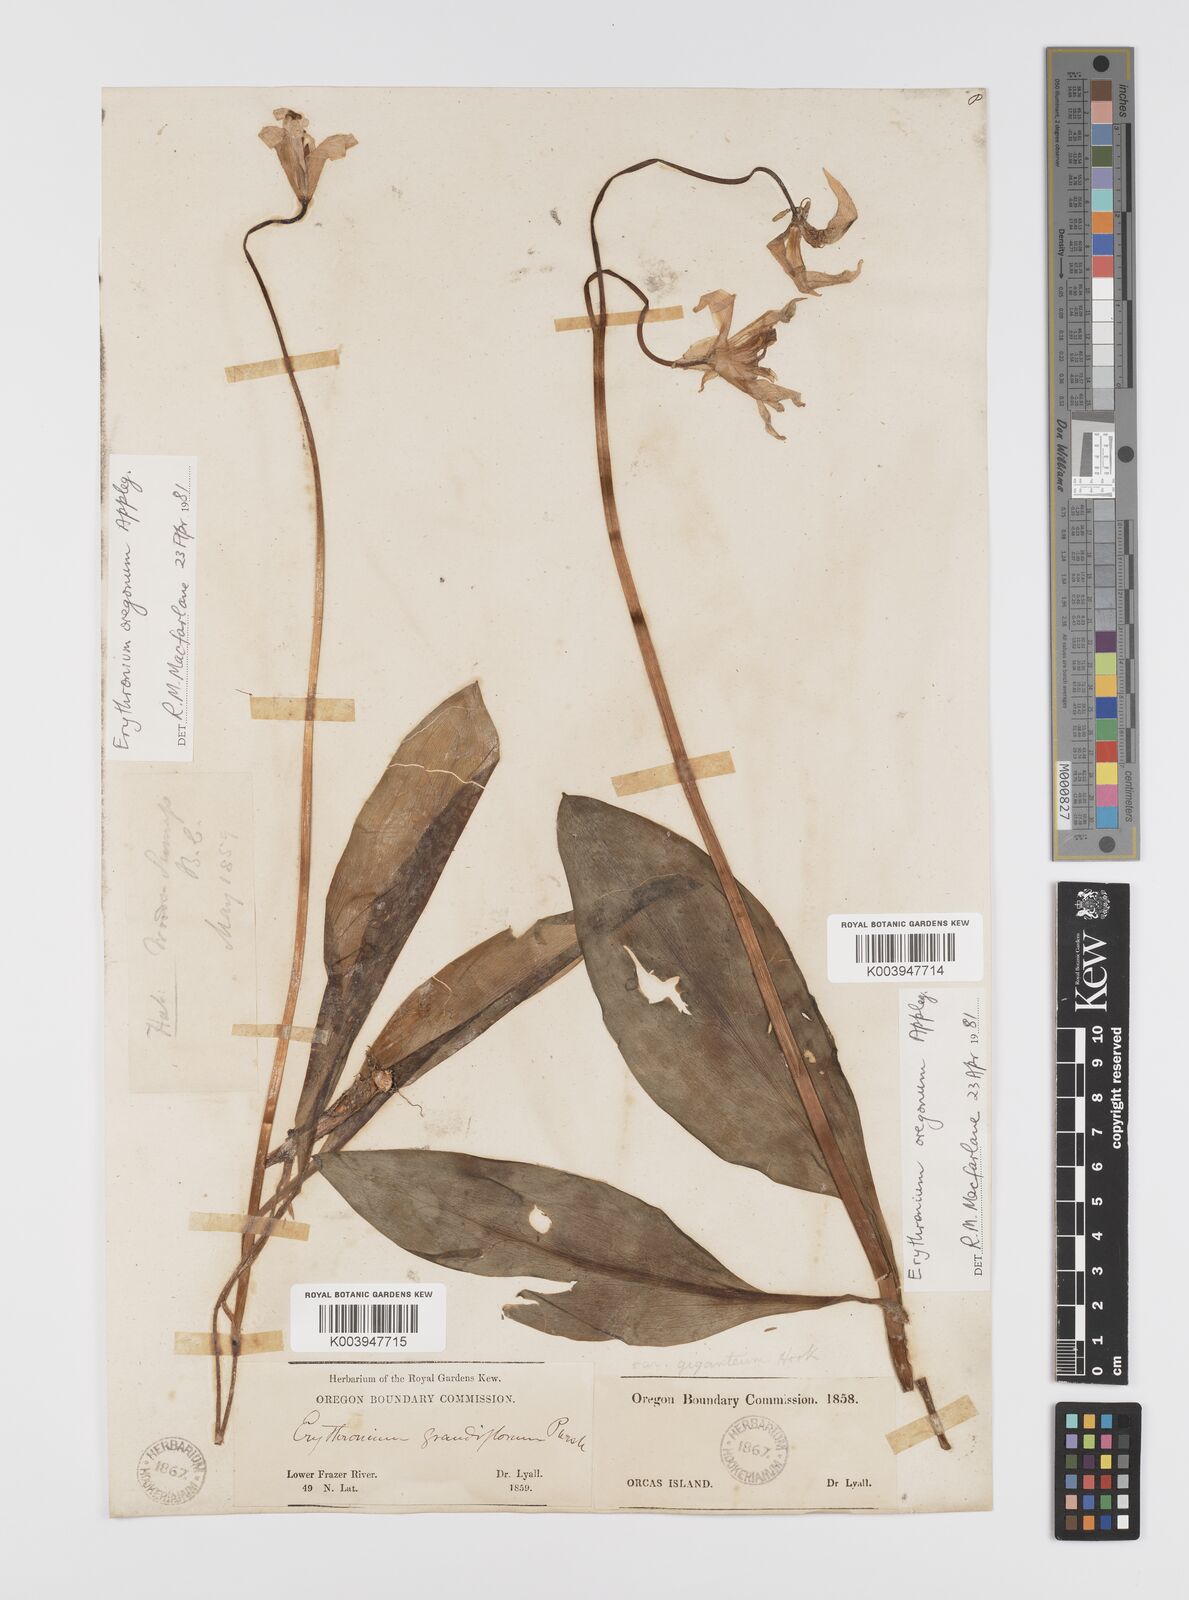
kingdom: Plantae
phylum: Tracheophyta
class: Liliopsida
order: Liliales
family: Liliaceae
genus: Erythronium
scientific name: Erythronium oregonum
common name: Giant adder's-tongue
